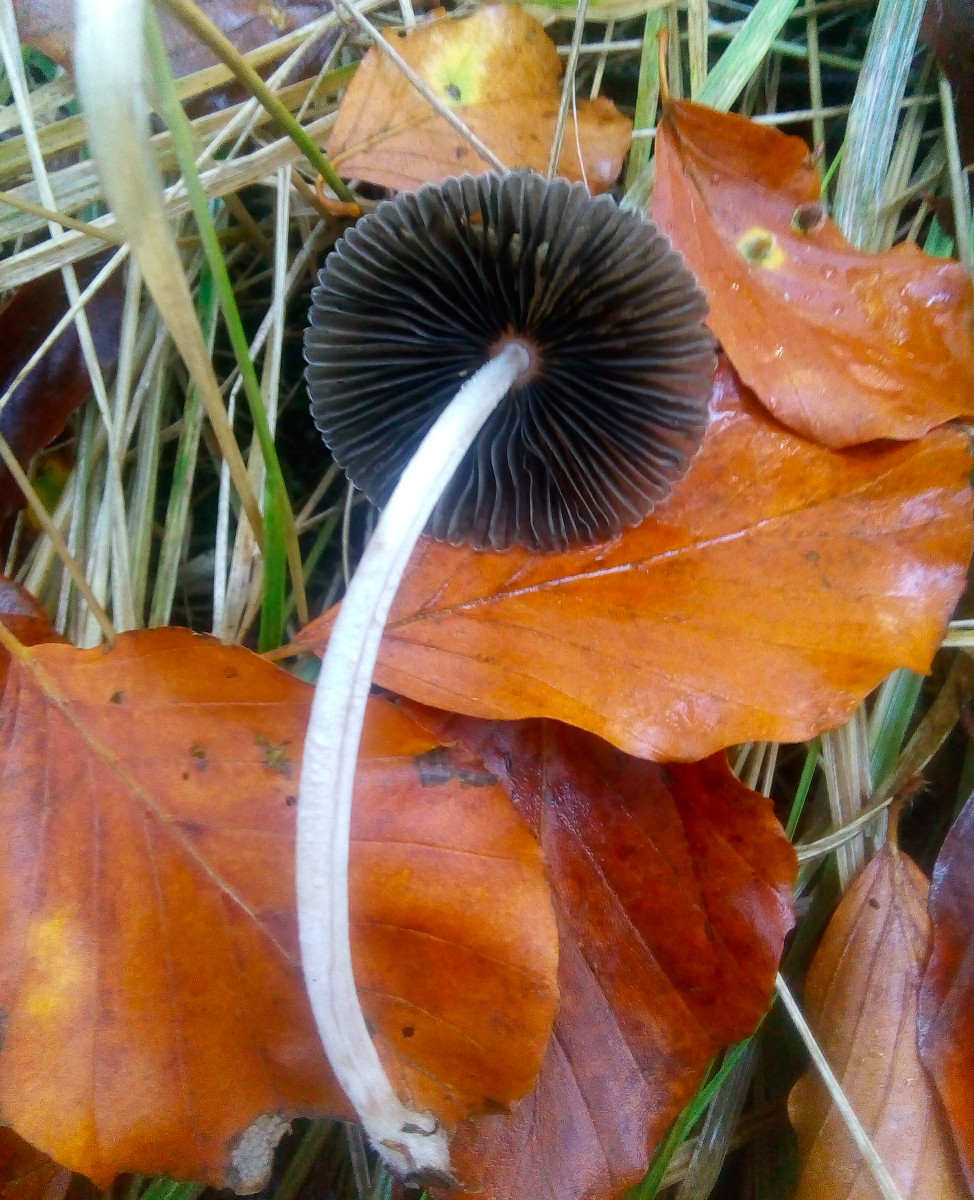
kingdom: Fungi
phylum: Basidiomycota
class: Agaricomycetes
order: Agaricales
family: Psathyrellaceae
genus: Parasola
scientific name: Parasola lactea
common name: glat hjulhat
